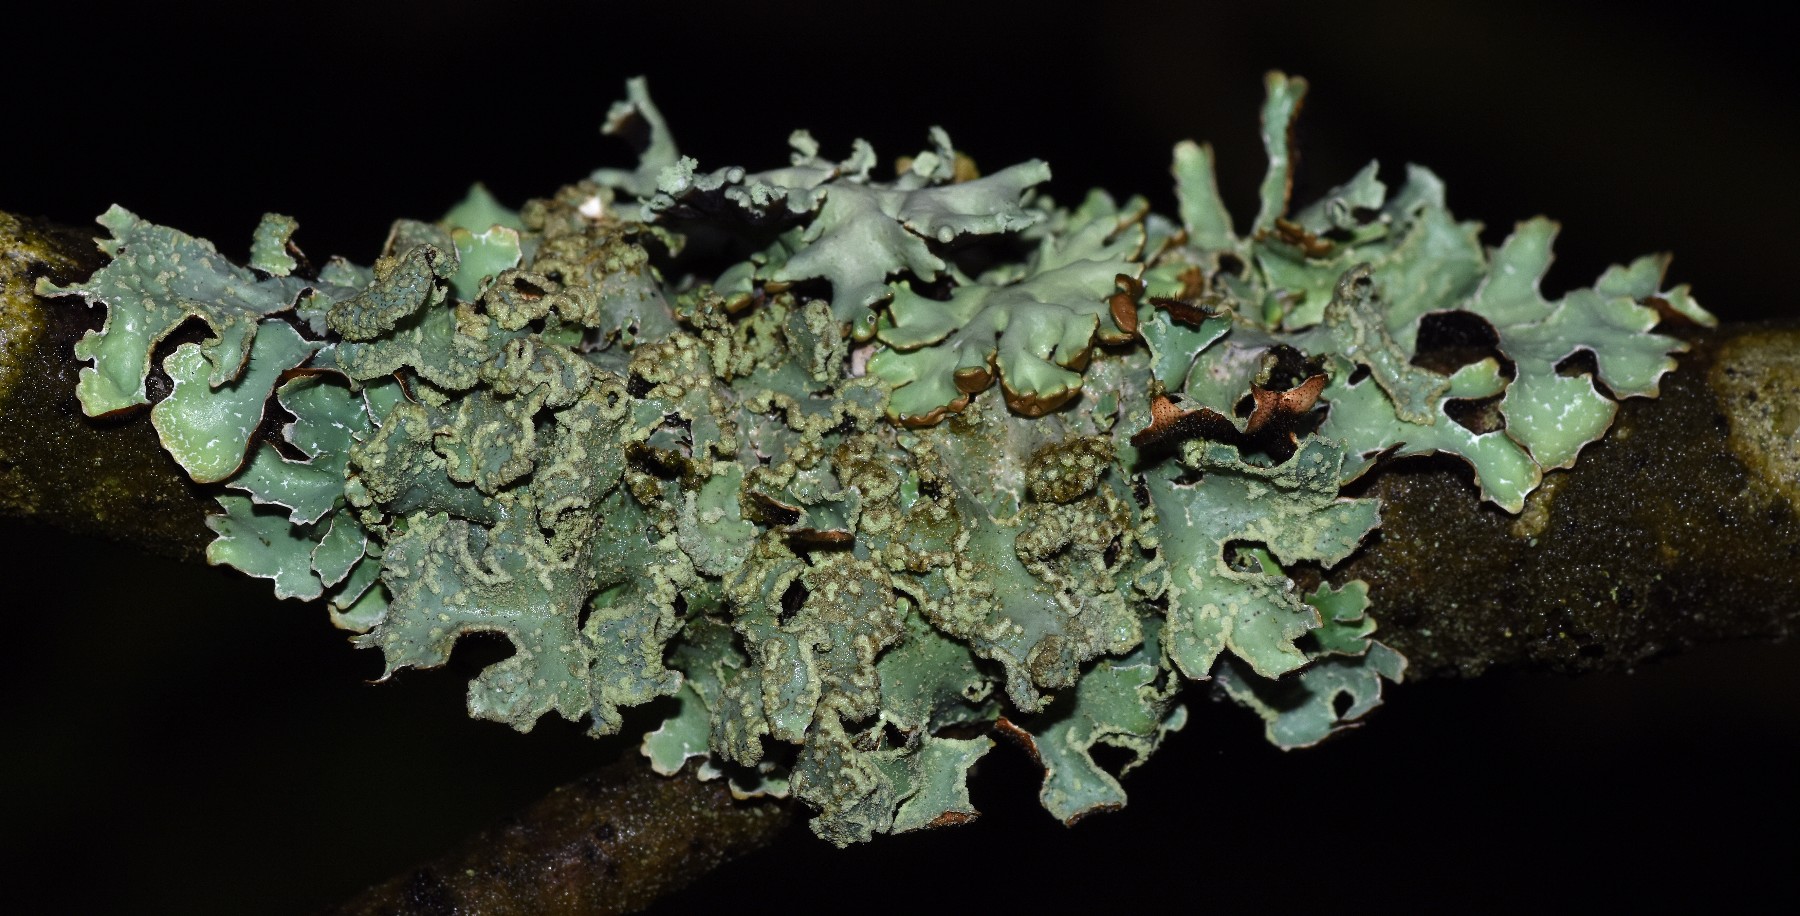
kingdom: Fungi
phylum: Ascomycota
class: Lecanoromycetes
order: Lecanorales
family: Parmeliaceae
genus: Parmelia
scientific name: Parmelia sulcata
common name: rynket skållav
